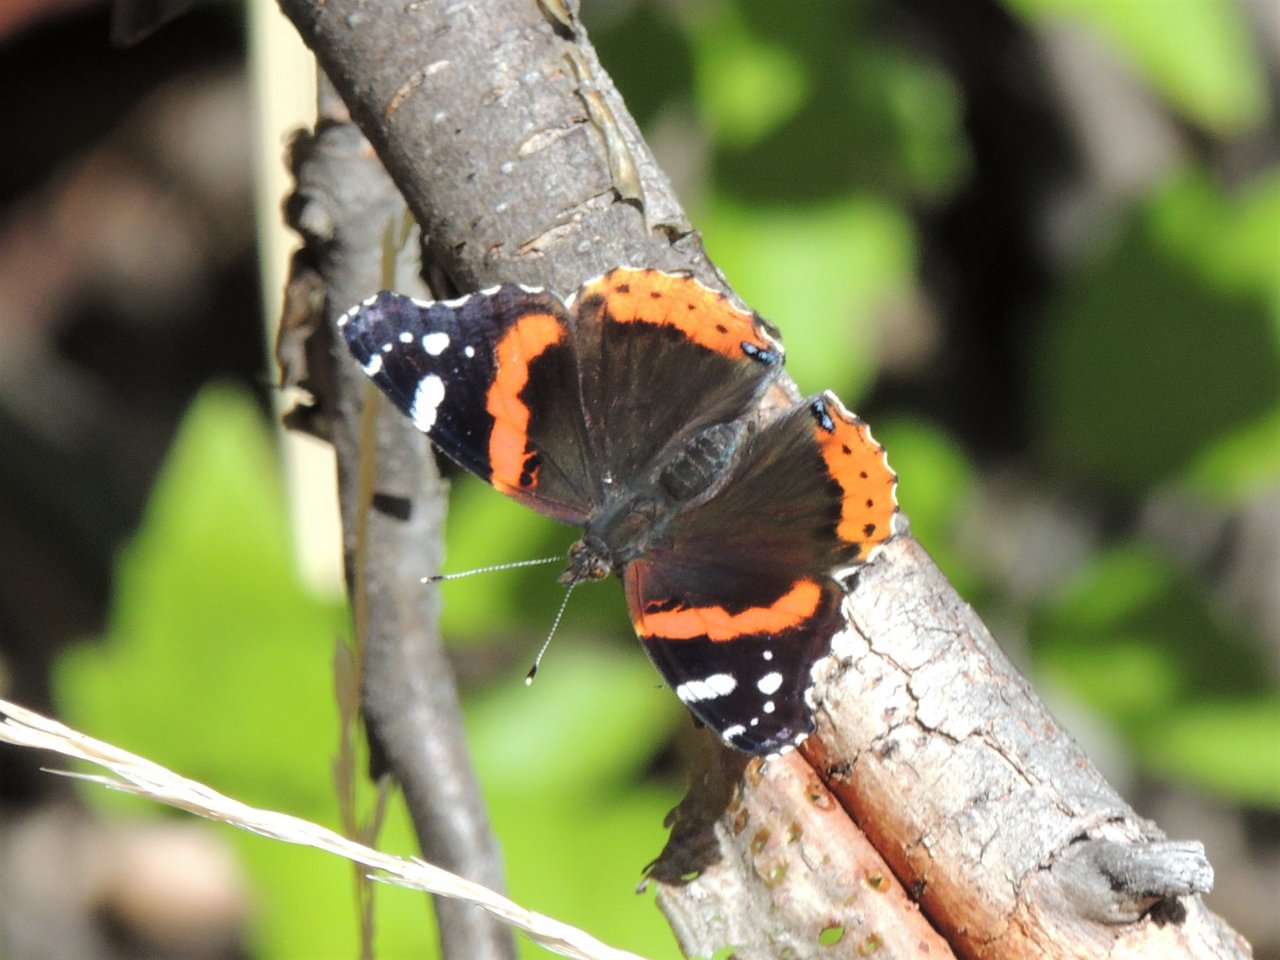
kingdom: Animalia
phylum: Arthropoda
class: Insecta
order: Lepidoptera
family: Nymphalidae
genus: Vanessa
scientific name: Vanessa atalanta
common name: Red Admiral
